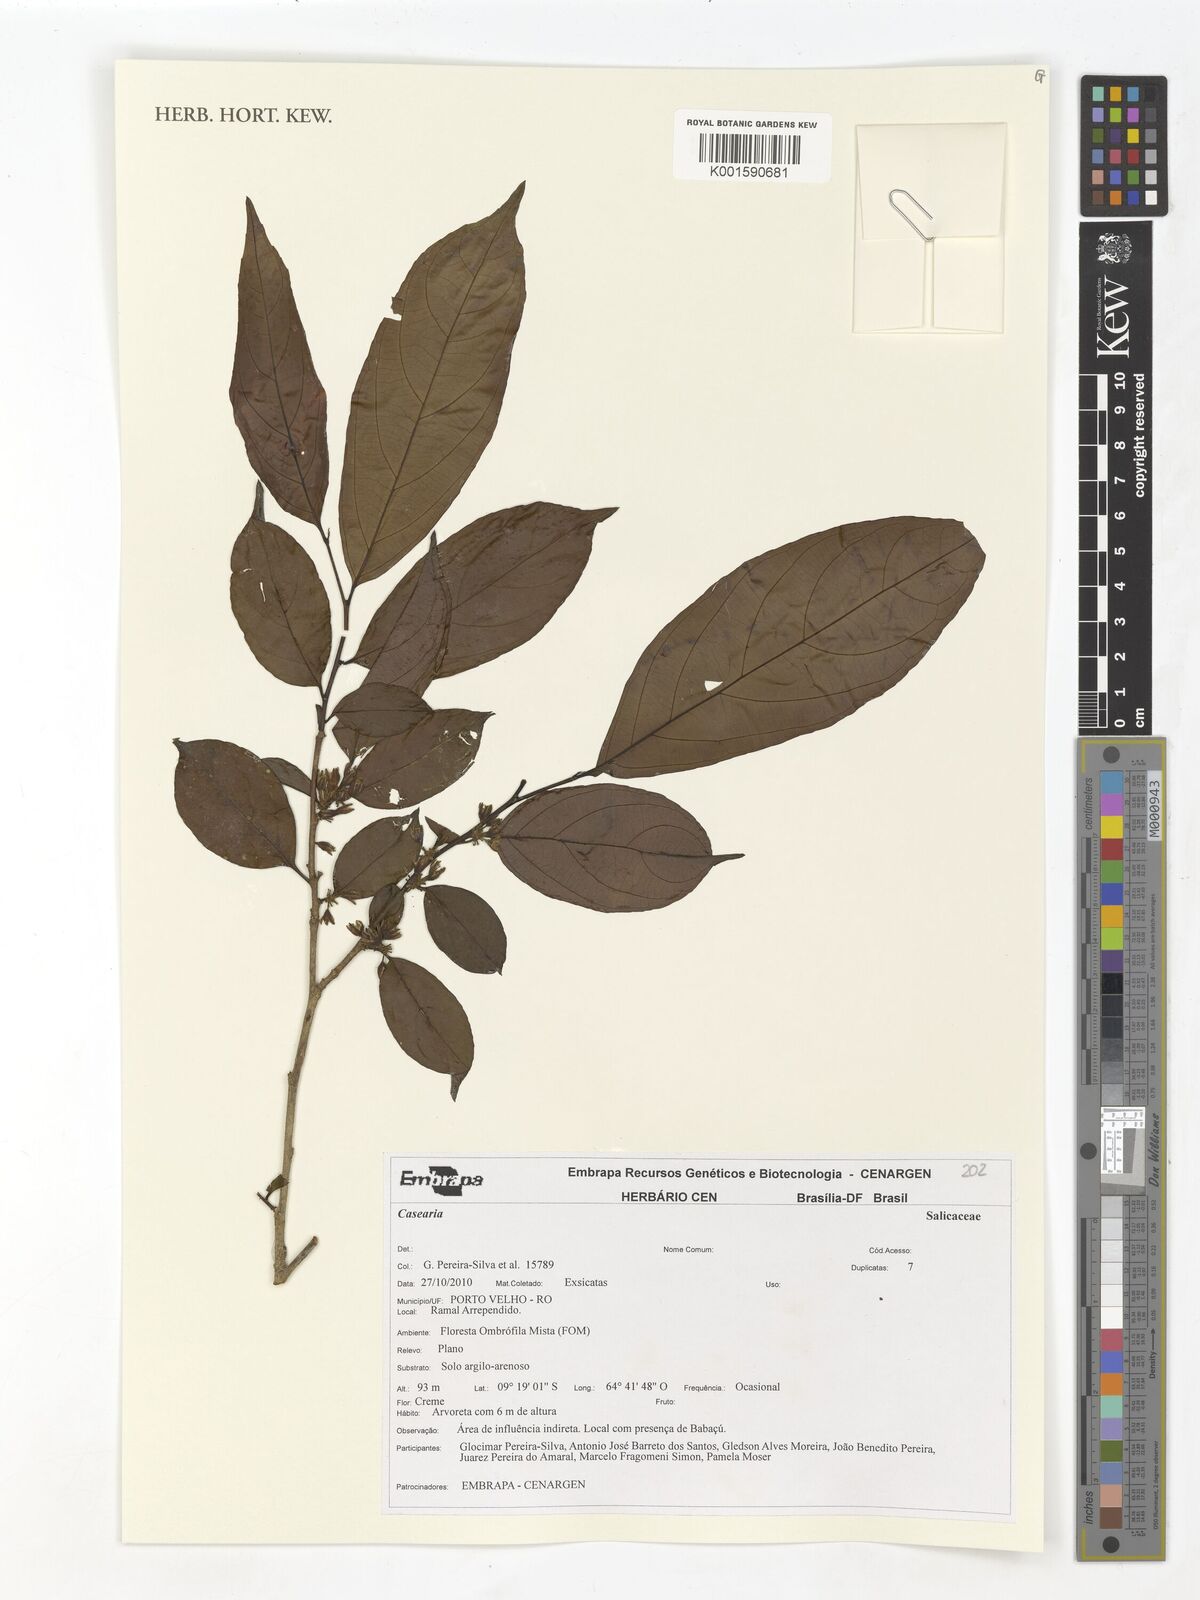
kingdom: Plantae
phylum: Tracheophyta
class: Magnoliopsida
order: Malpighiales
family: Salicaceae
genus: Casearia
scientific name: Casearia
